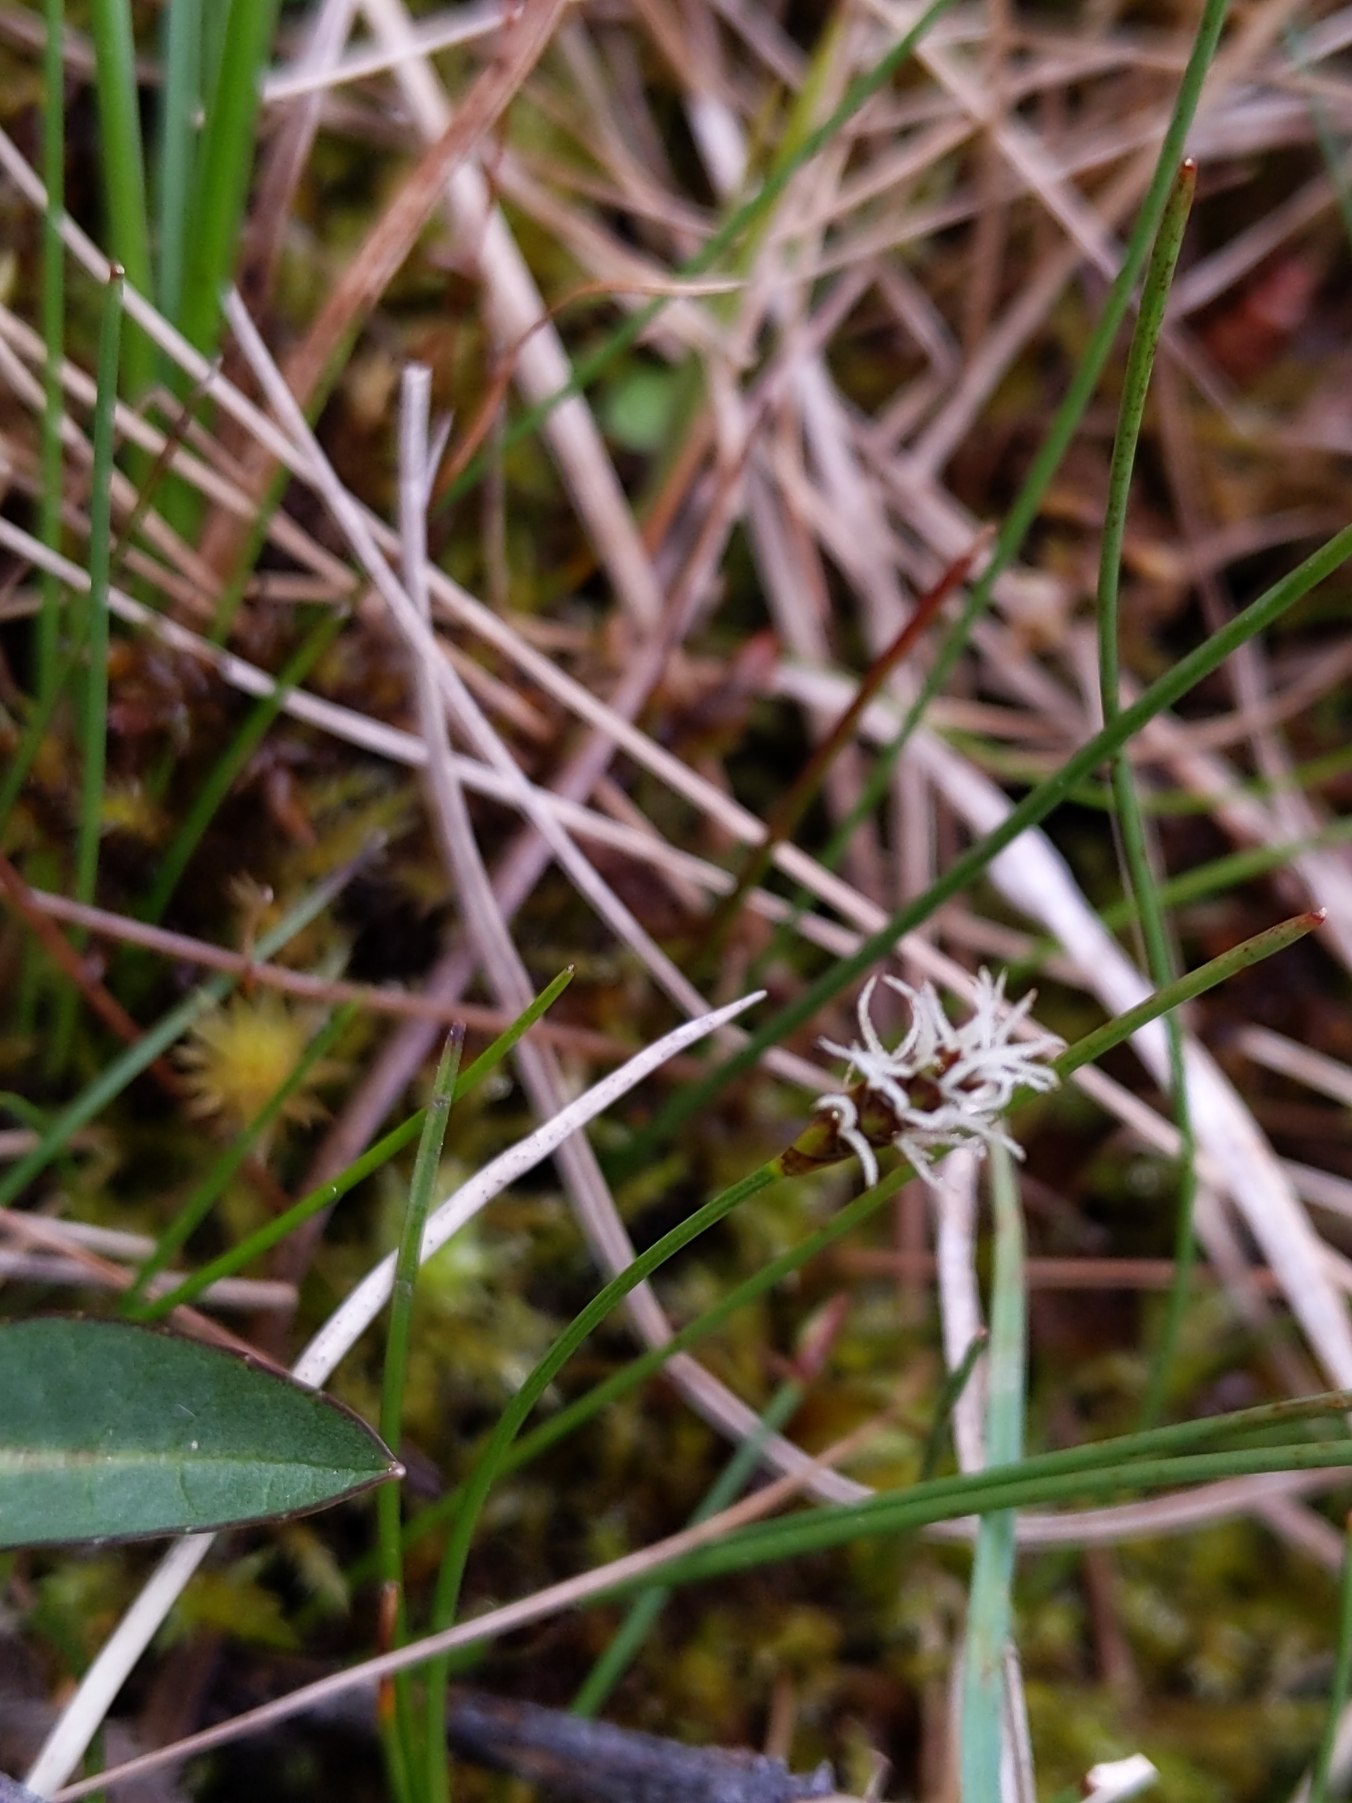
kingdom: Plantae
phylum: Tracheophyta
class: Liliopsida
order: Poales
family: Cyperaceae
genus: Carex
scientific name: Carex dioica
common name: Tvebo star
